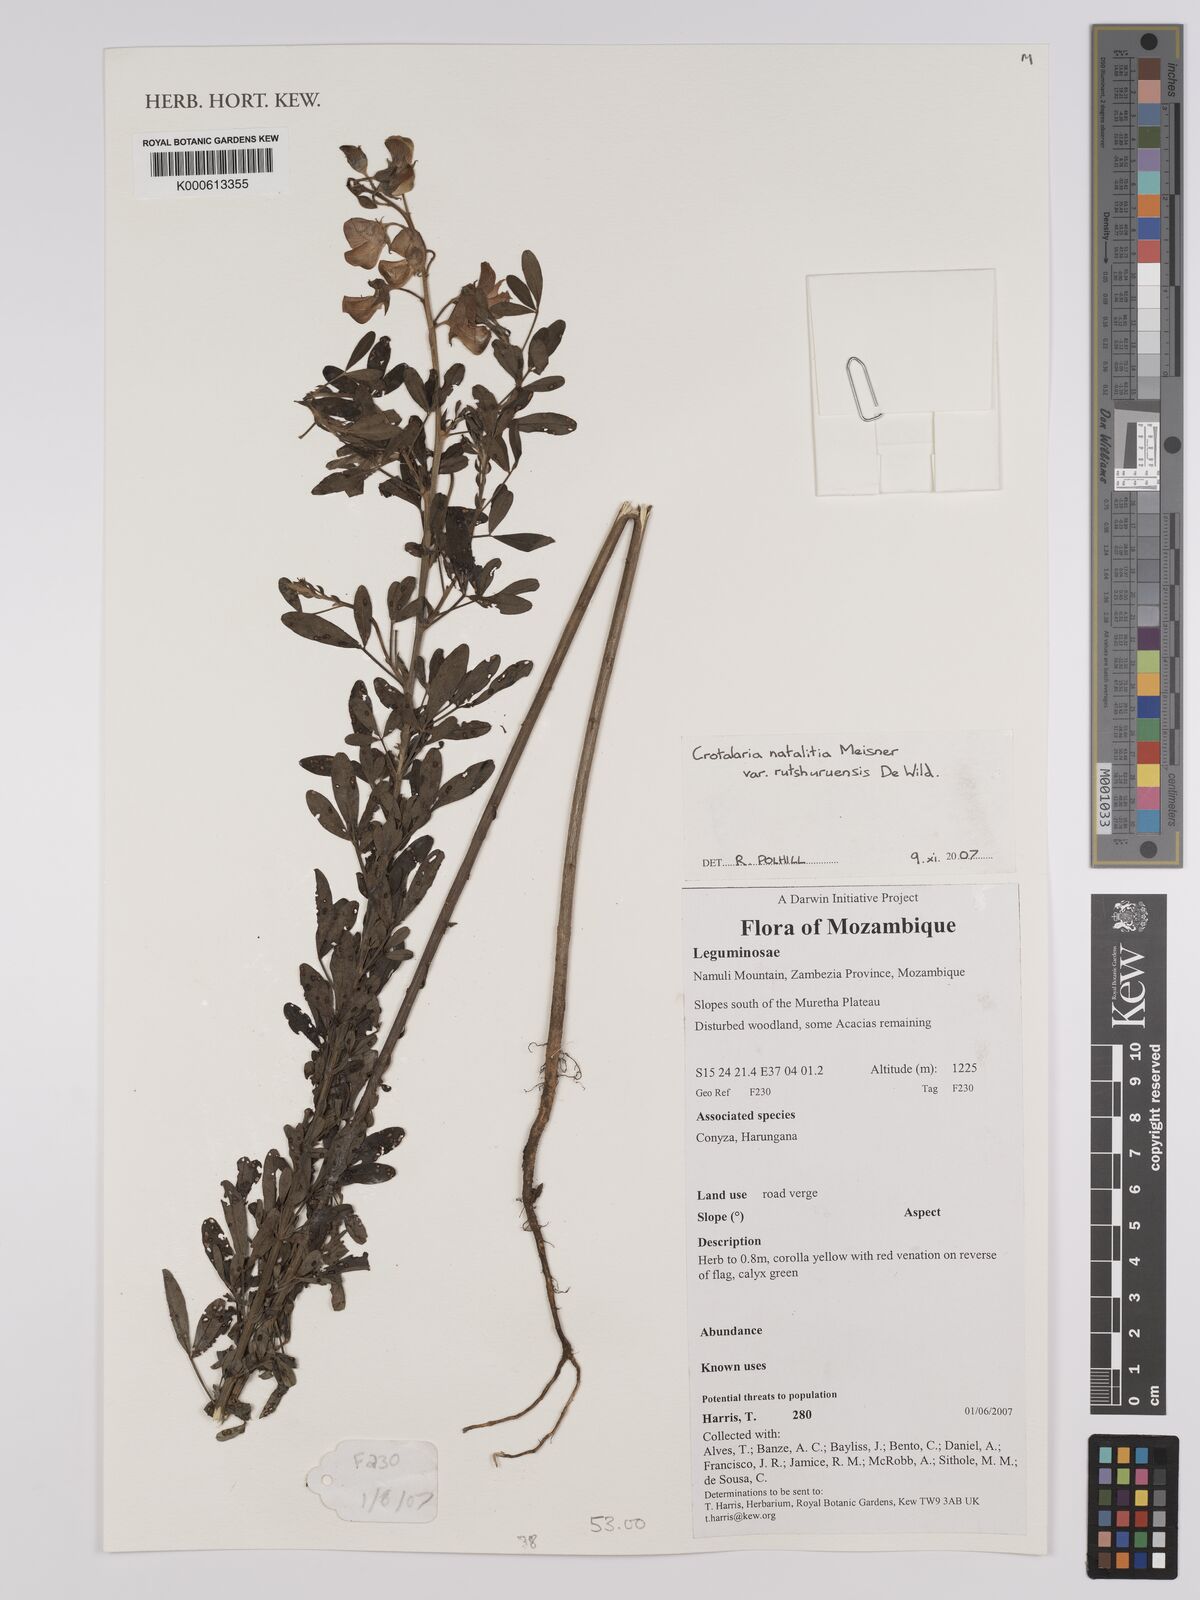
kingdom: Plantae
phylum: Tracheophyta
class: Magnoliopsida
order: Fabales
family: Fabaceae
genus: Crotalaria
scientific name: Crotalaria
